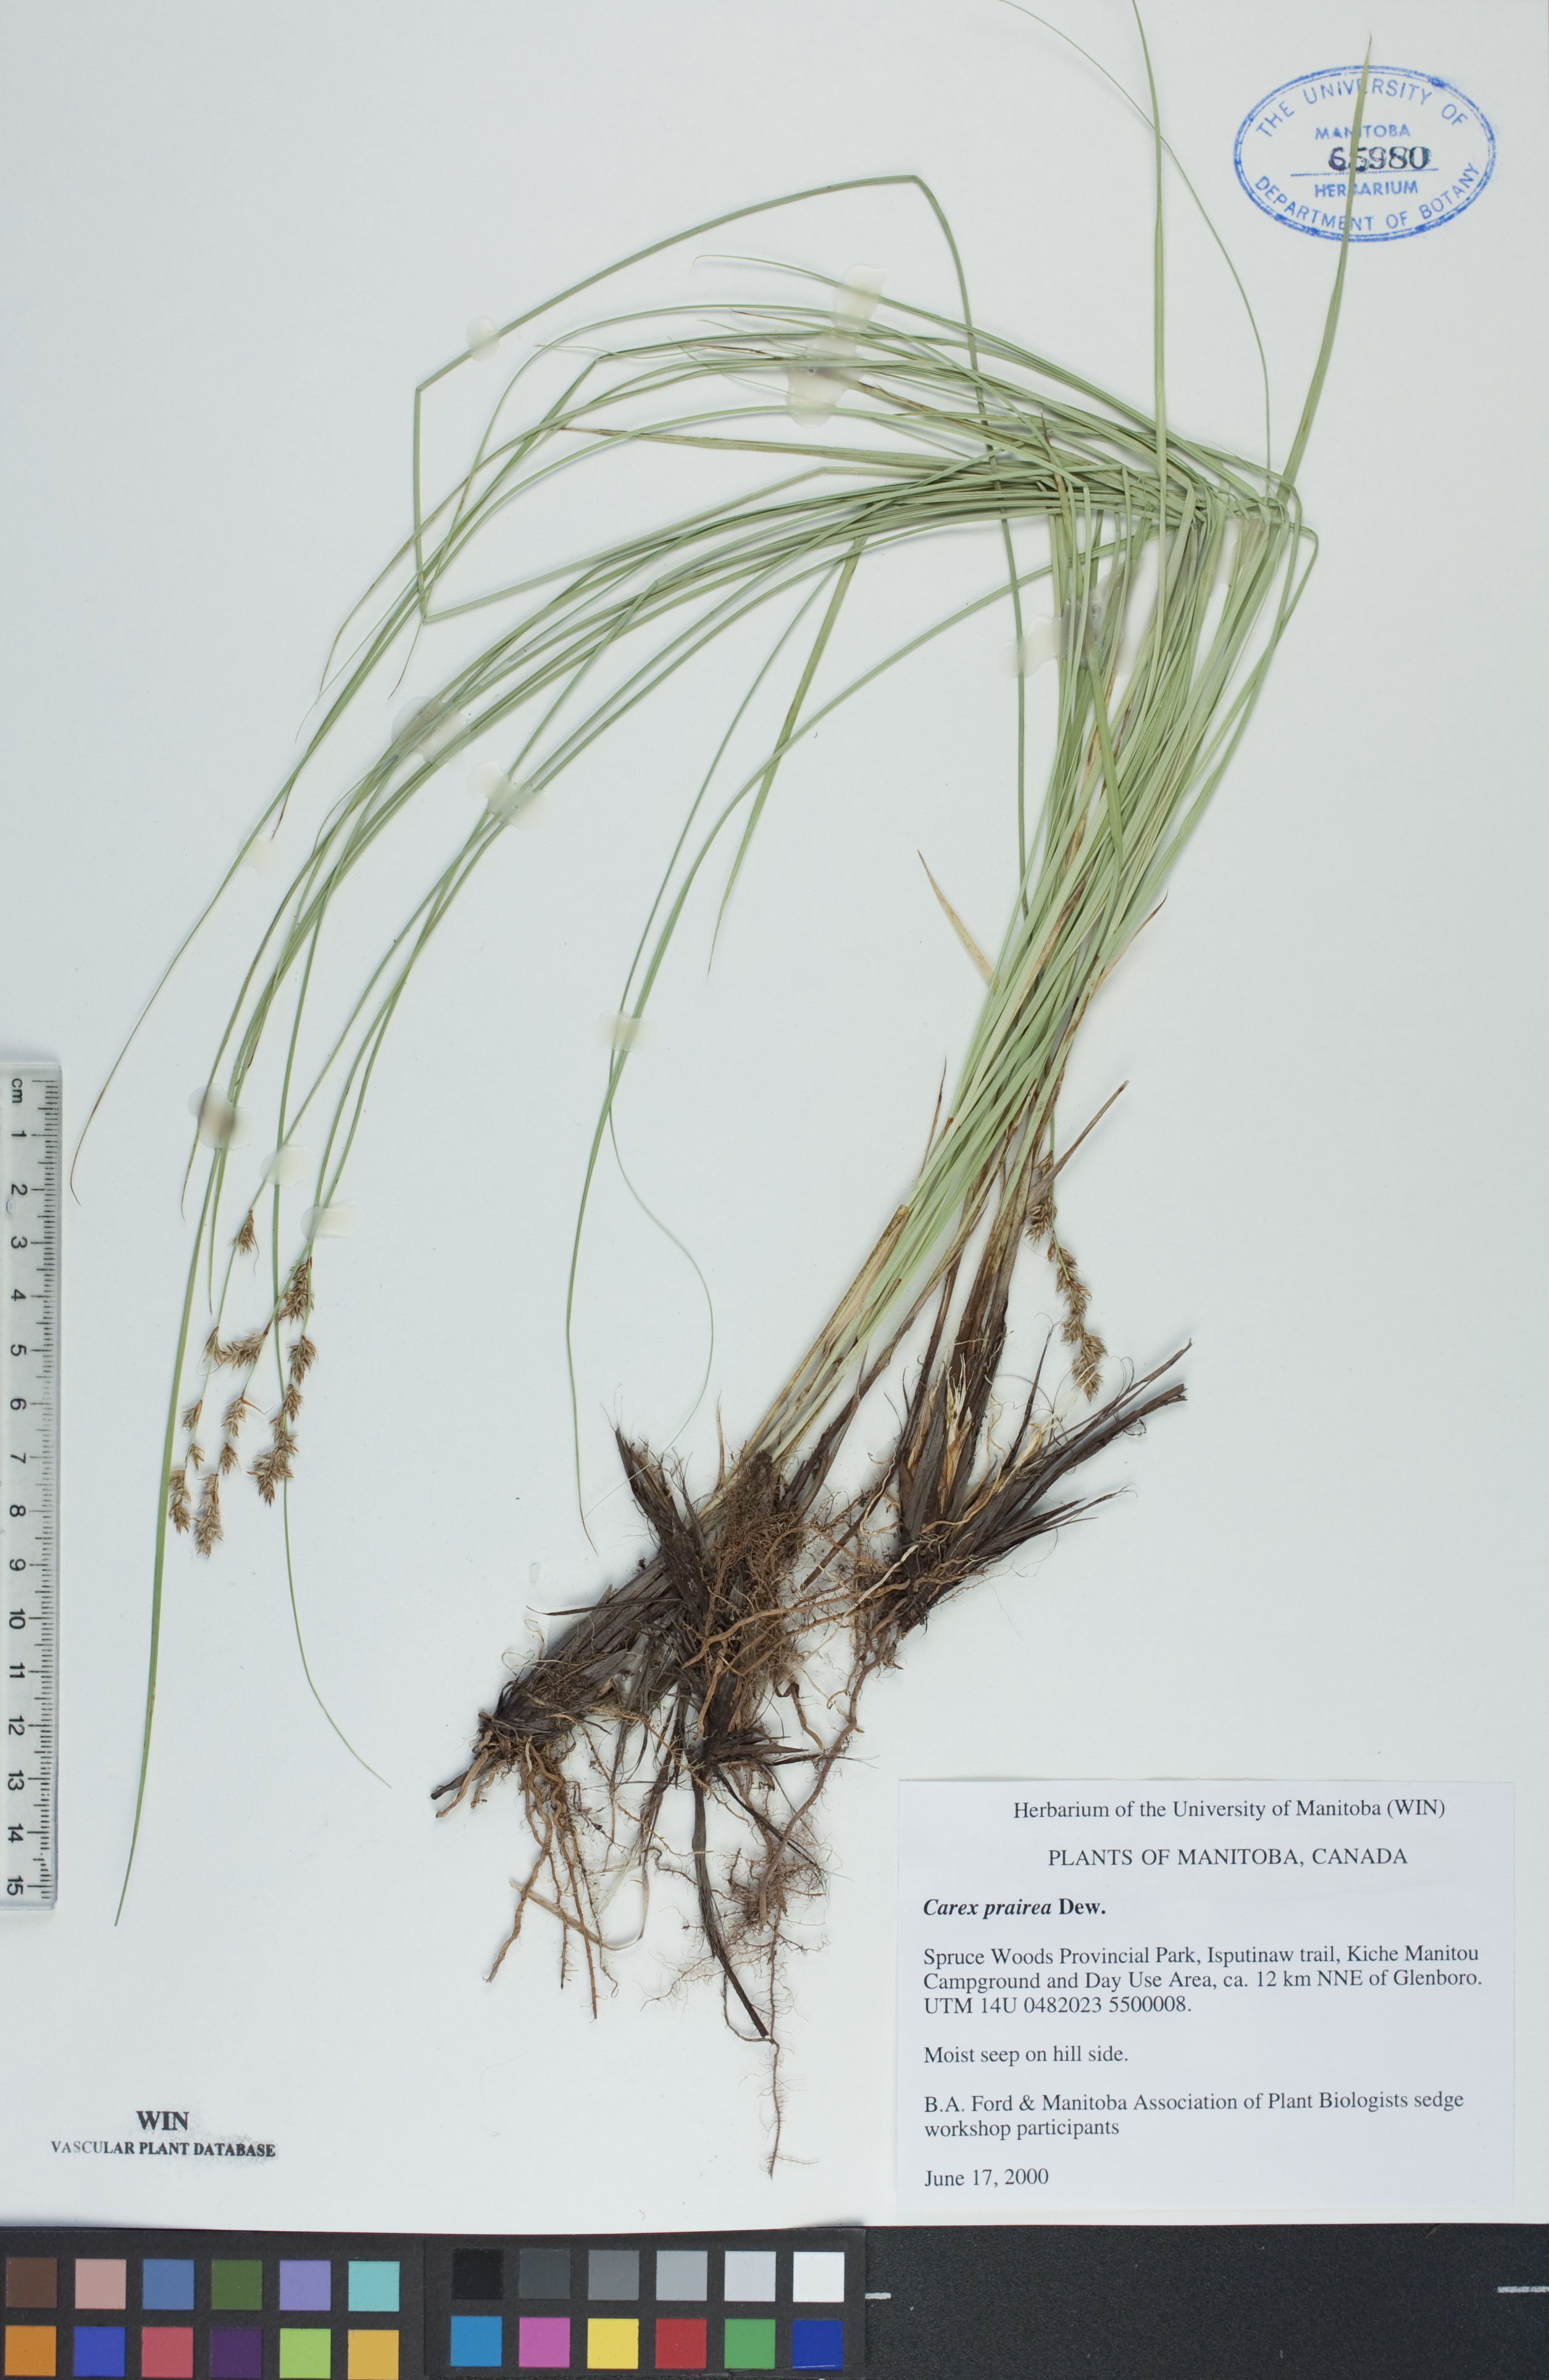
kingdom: Plantae
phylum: Tracheophyta
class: Liliopsida
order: Poales
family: Cyperaceae
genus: Carex
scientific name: Carex prairea
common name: Prairie sedge
